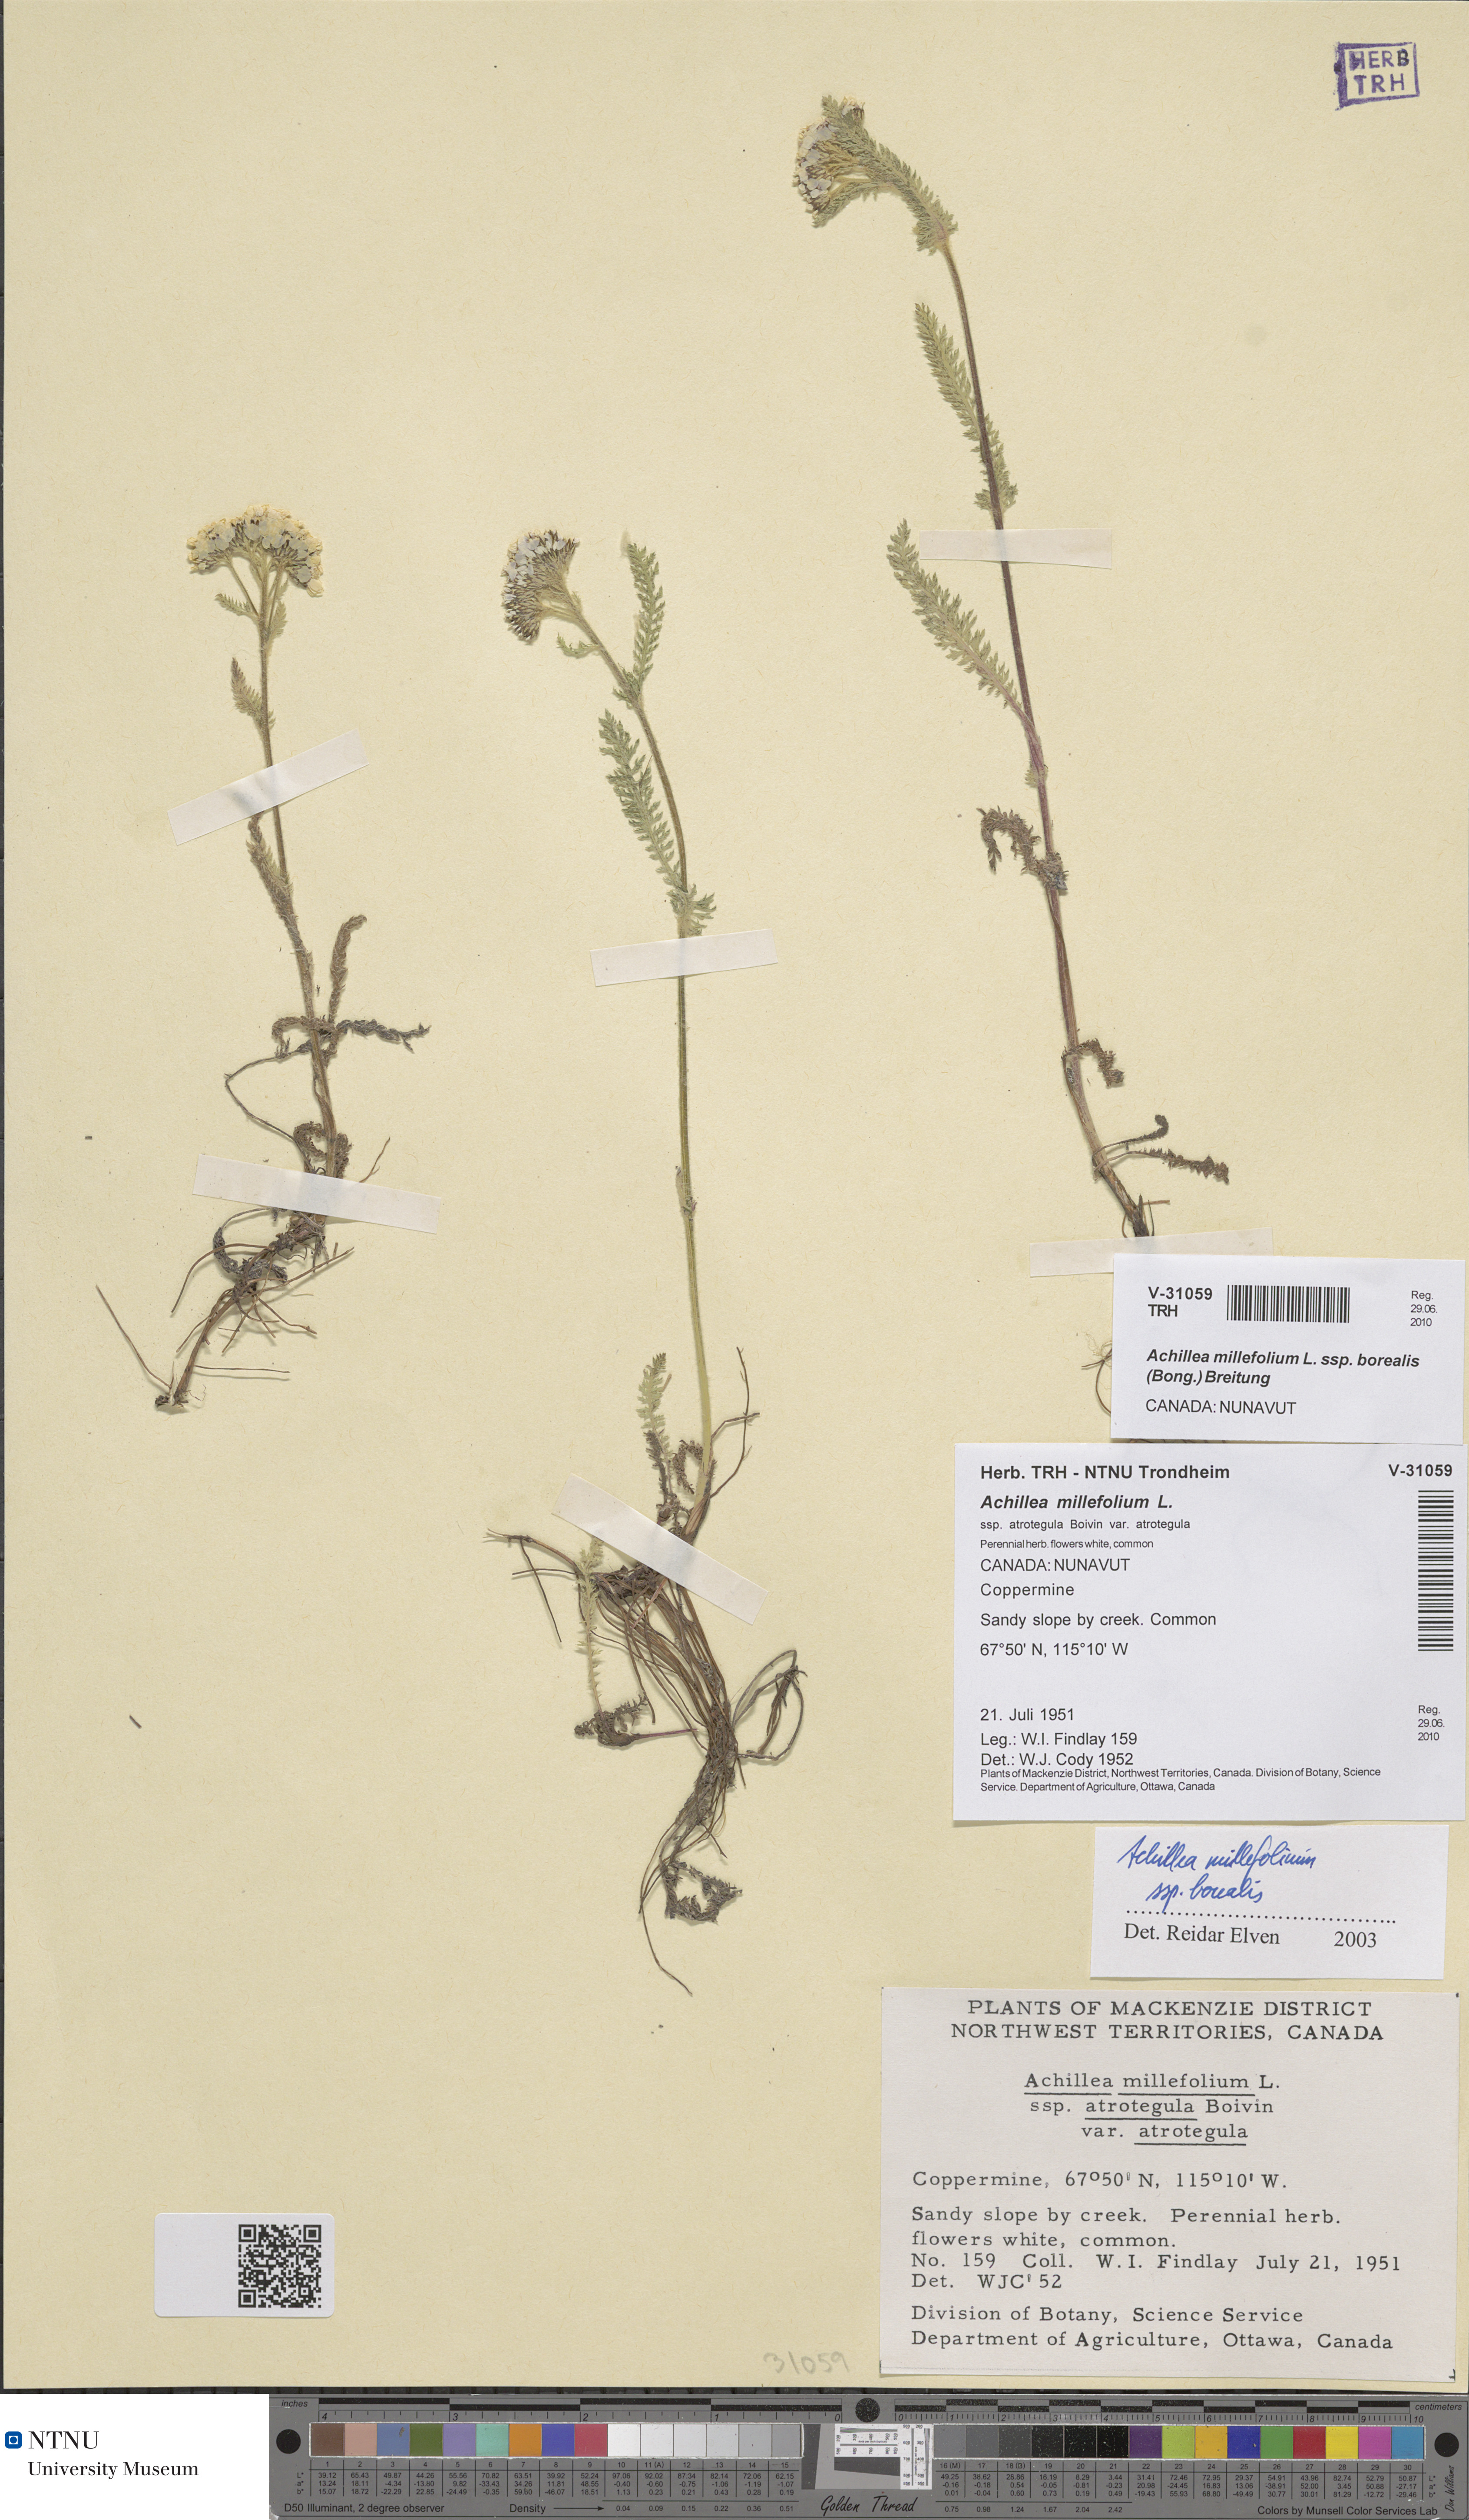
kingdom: Plantae
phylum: Tracheophyta
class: Magnoliopsida
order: Asterales
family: Asteraceae
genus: Achillea
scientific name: Achillea millefolium
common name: Yarrow
